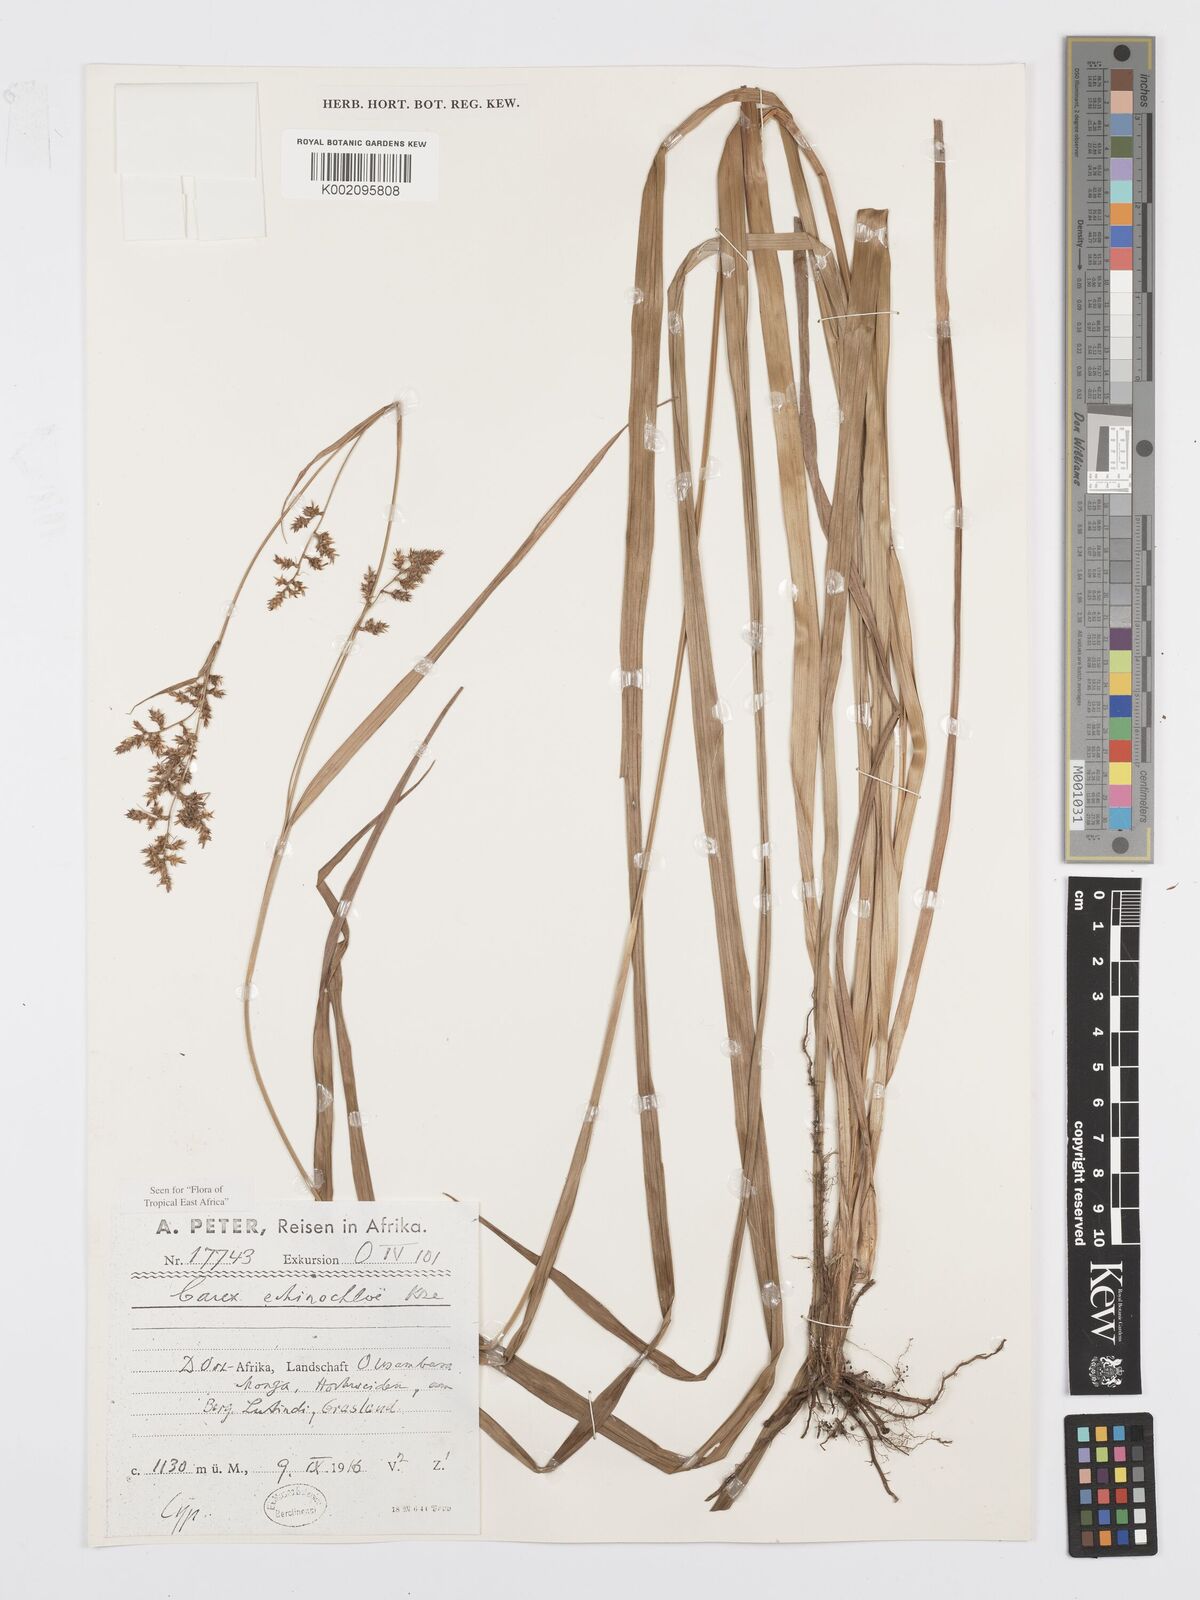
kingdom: Plantae
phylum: Tracheophyta
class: Liliopsida
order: Poales
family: Cyperaceae
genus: Carex
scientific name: Carex echinochloe
